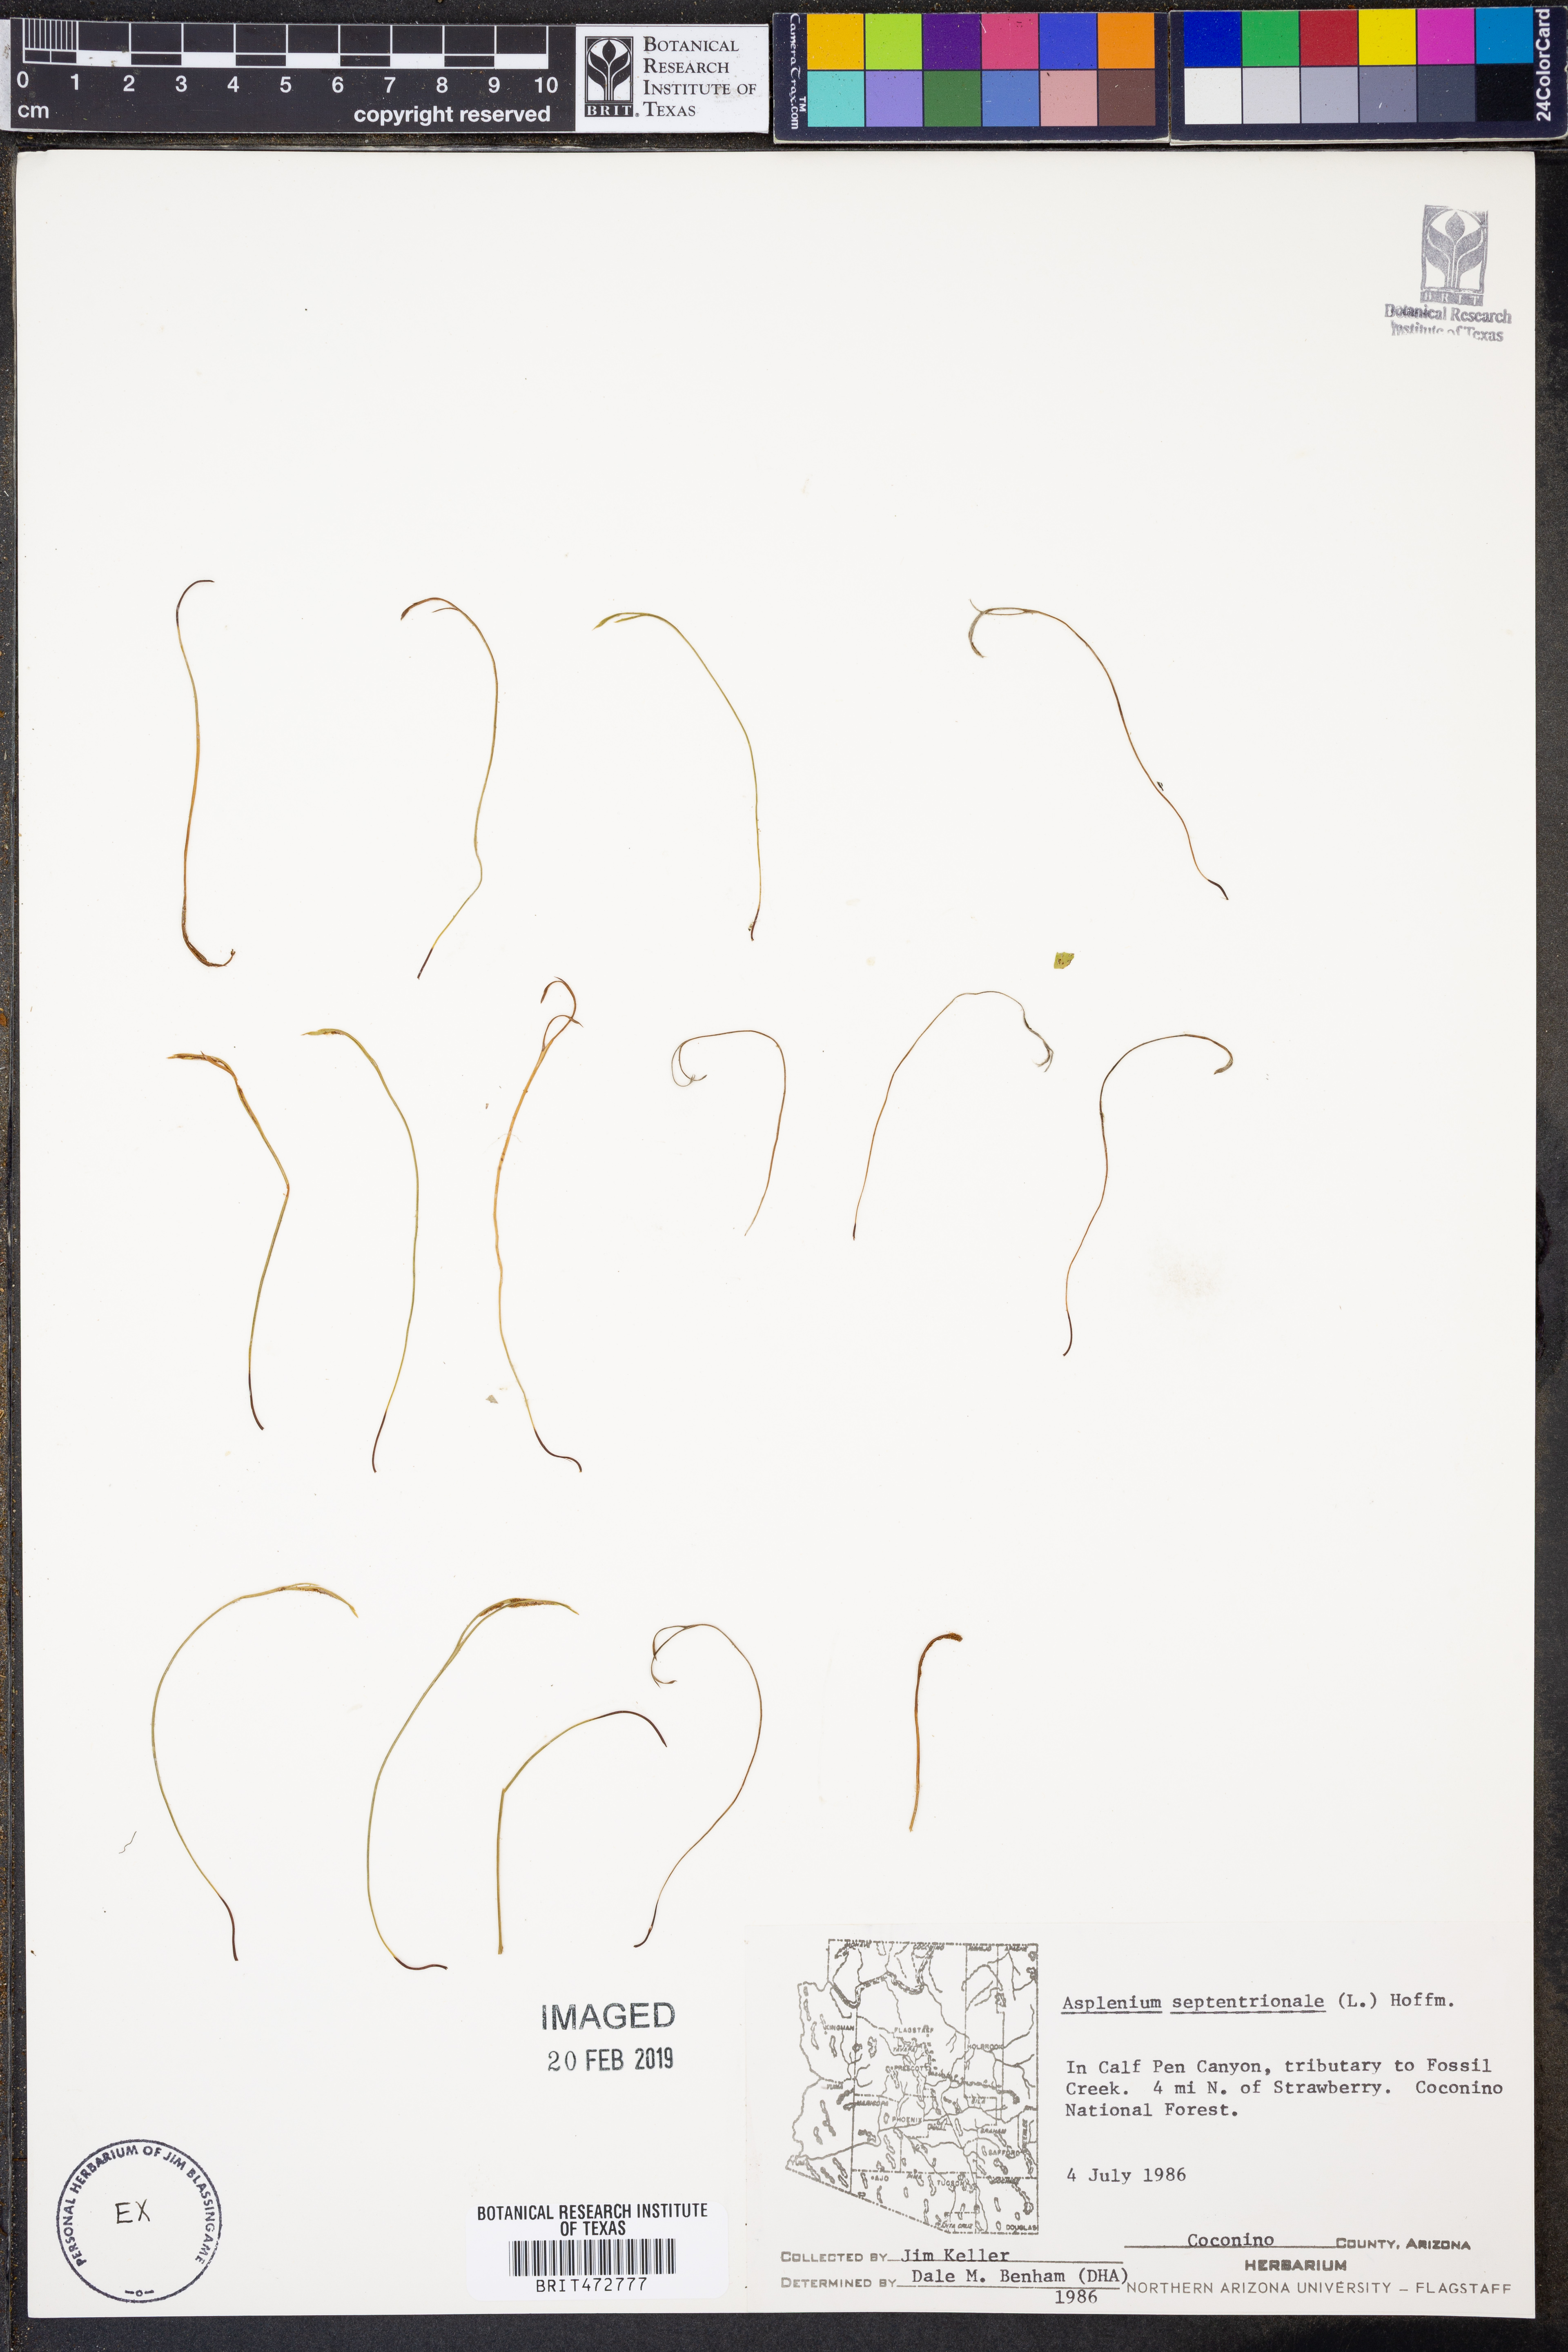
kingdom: Plantae
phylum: Tracheophyta
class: Polypodiopsida
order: Polypodiales
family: Aspleniaceae
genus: Asplenium
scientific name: Asplenium septentrionale
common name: Forked spleenwort
